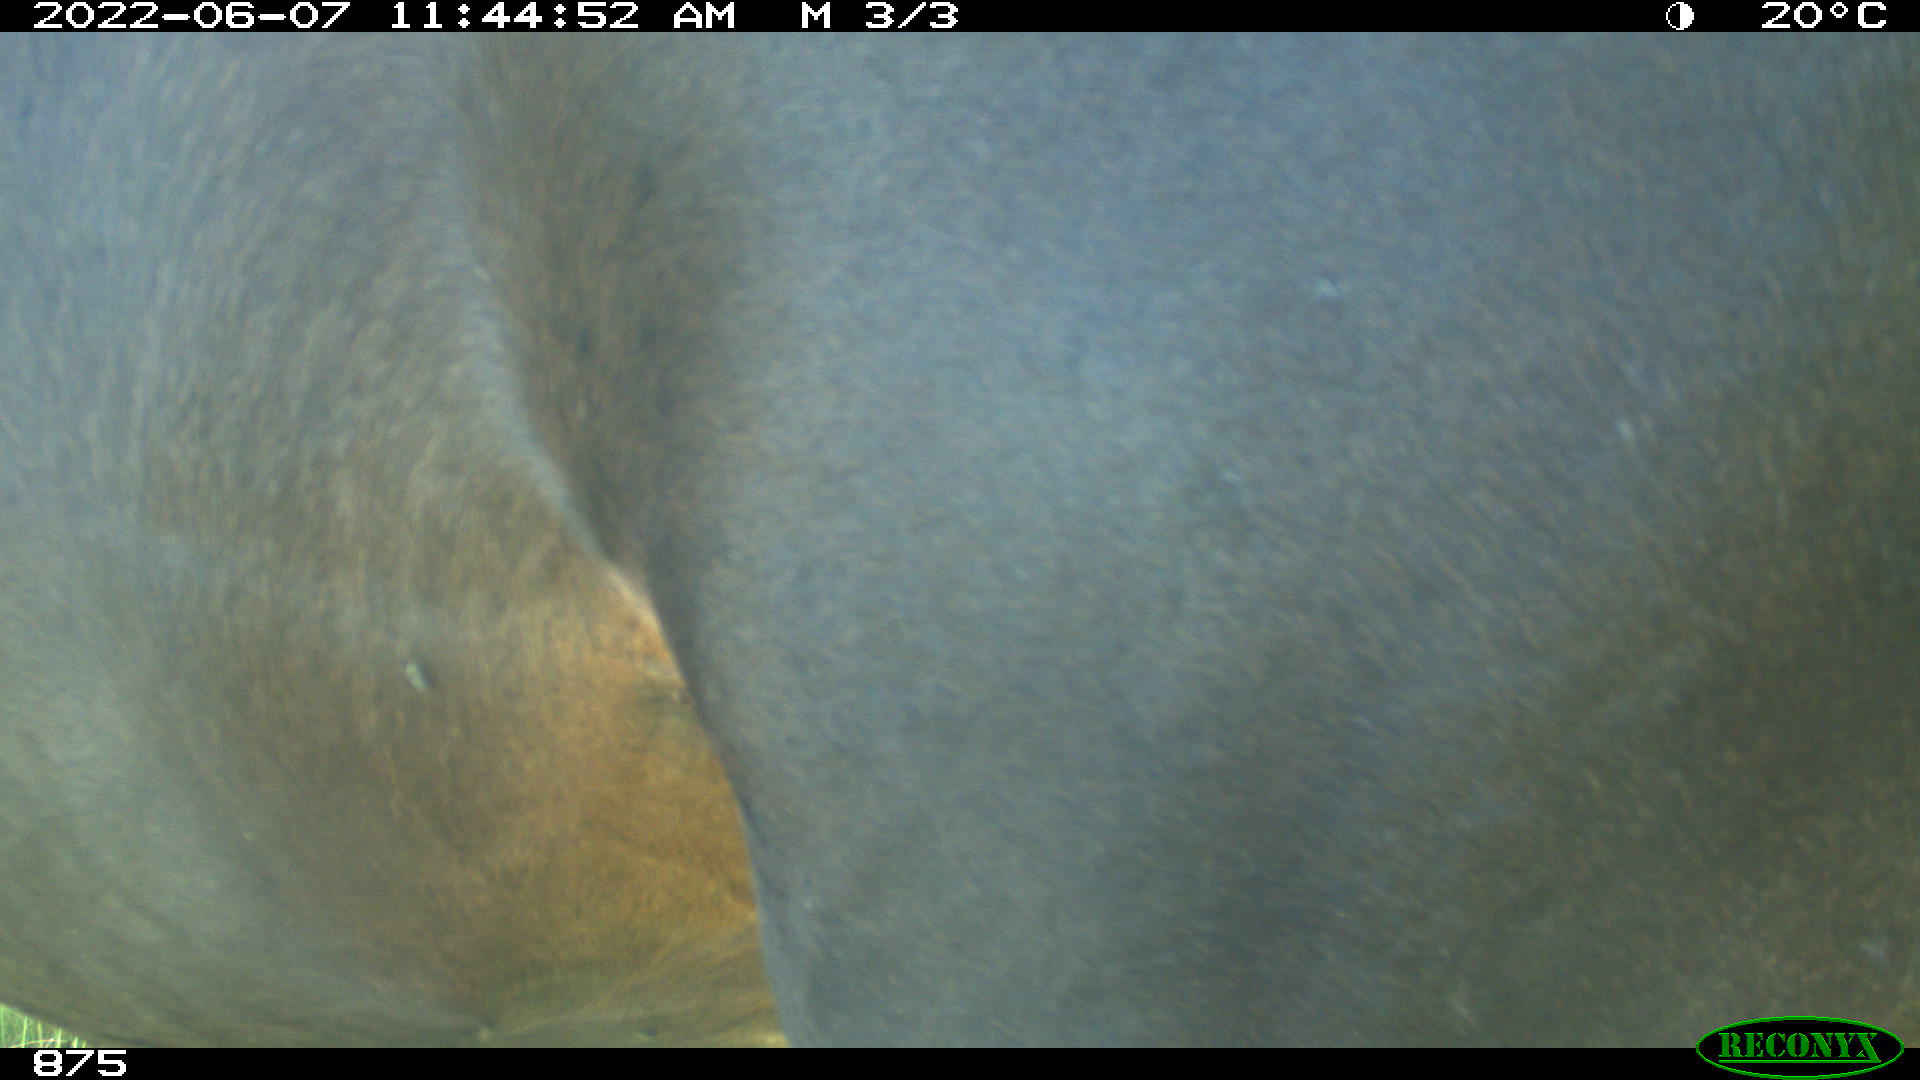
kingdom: Animalia
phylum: Chordata
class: Mammalia
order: Perissodactyla
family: Equidae
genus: Equus
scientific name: Equus caballus
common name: Horse
